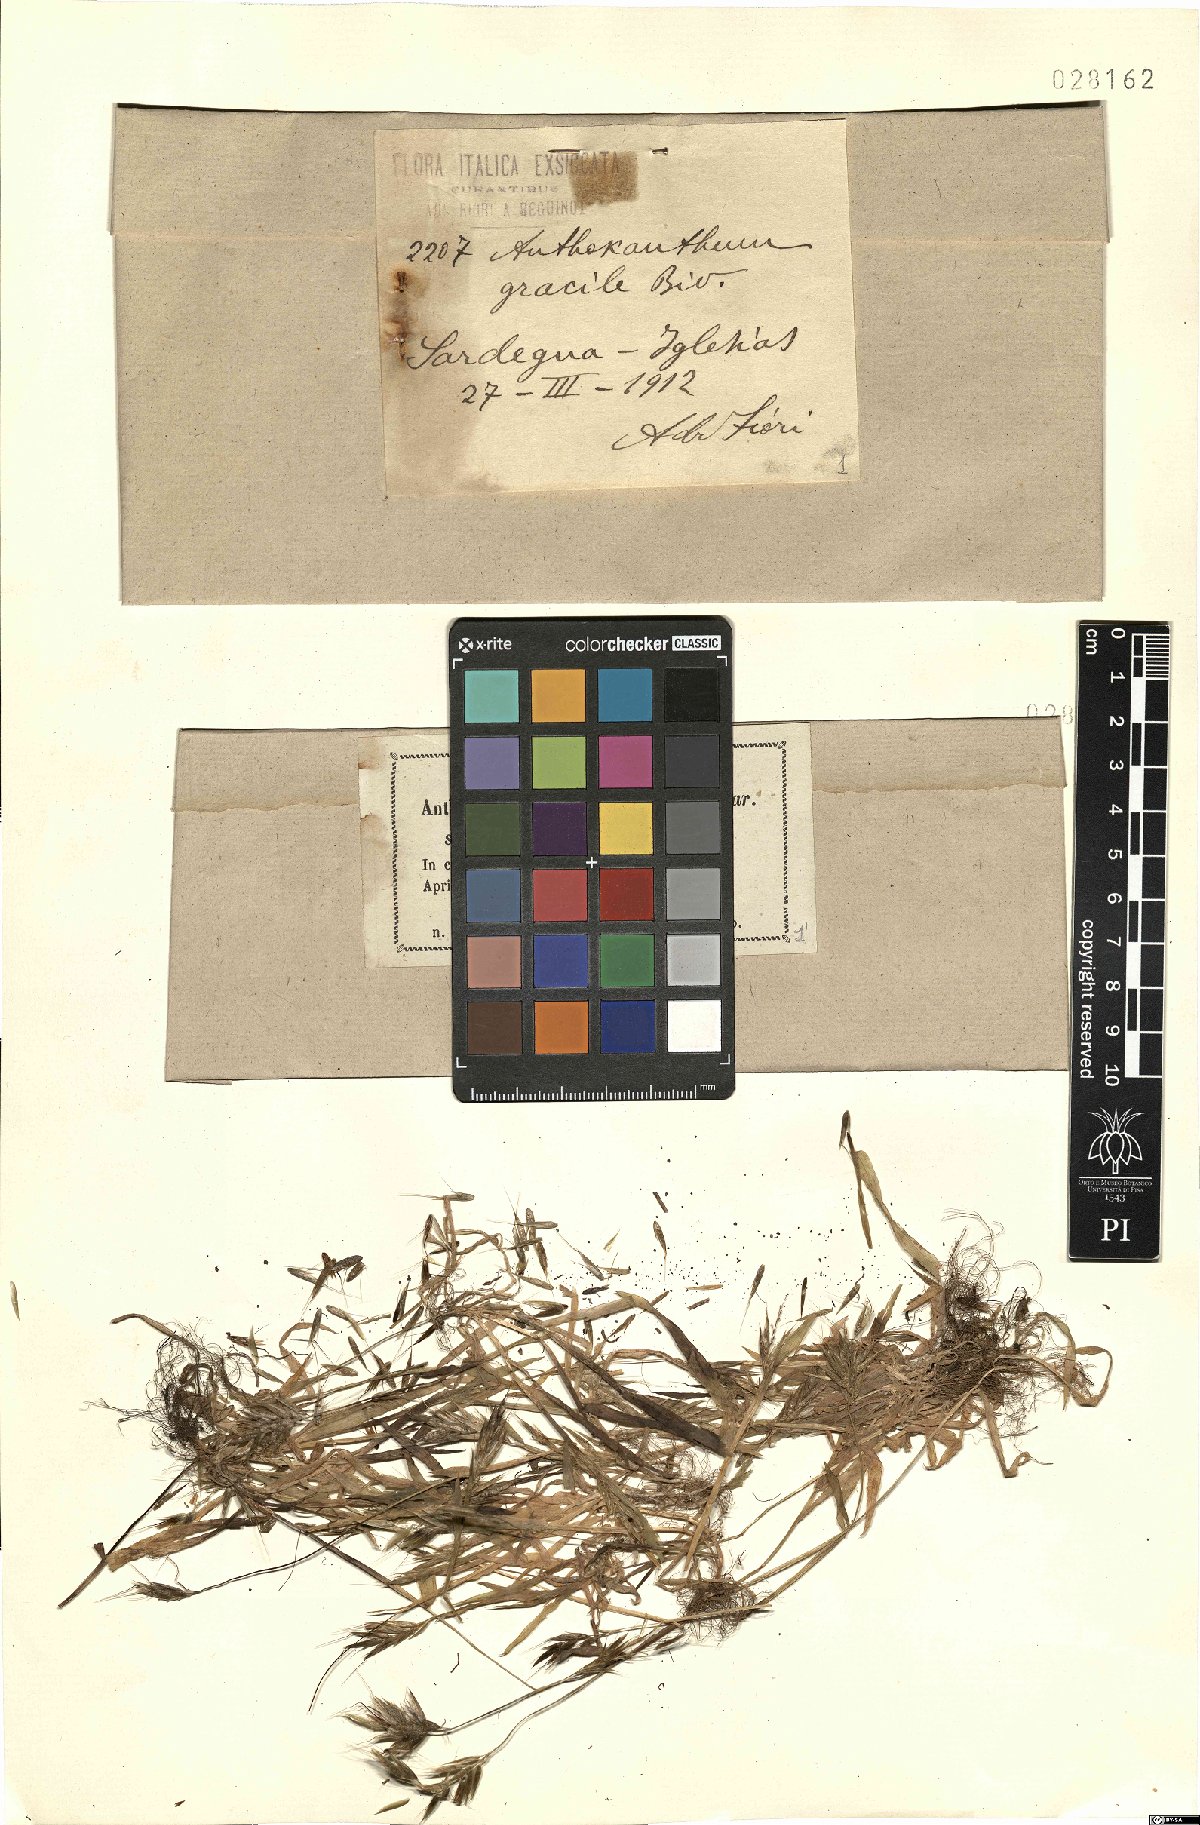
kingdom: Plantae
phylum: Tracheophyta
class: Liliopsida
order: Poales
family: Poaceae
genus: Anthoxanthum
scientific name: Anthoxanthum gracile
